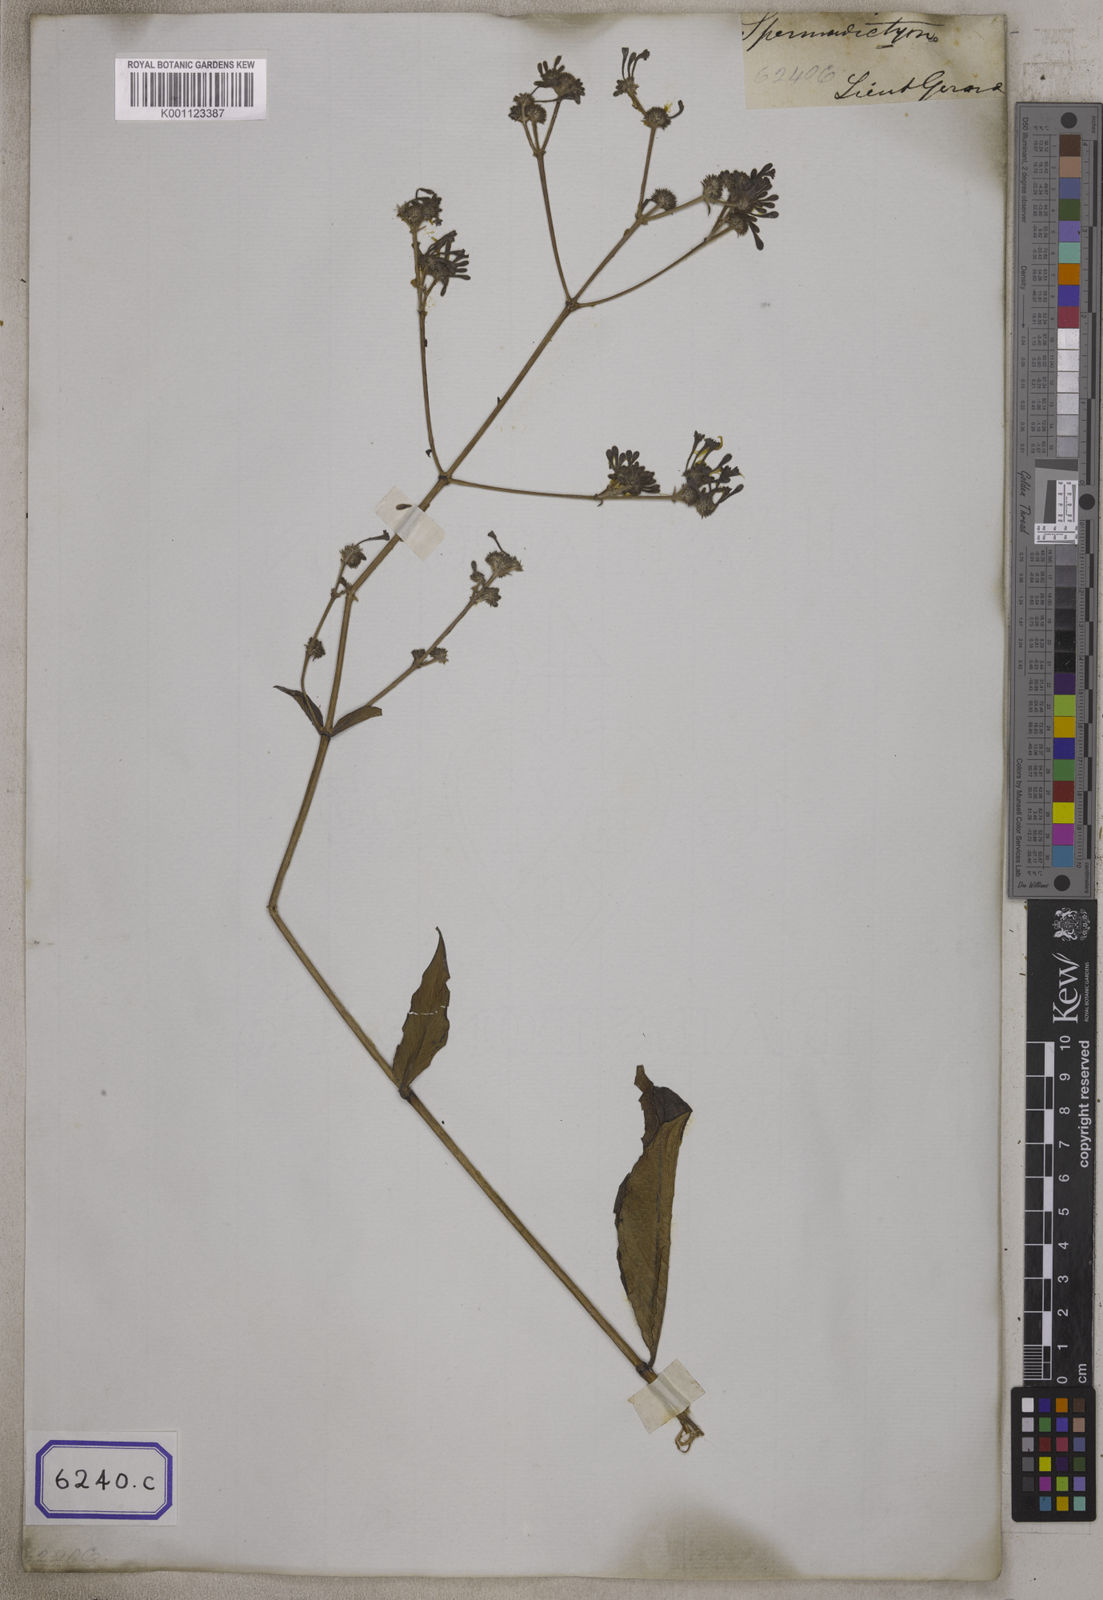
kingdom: Plantae
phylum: Tracheophyta
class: Magnoliopsida
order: Gentianales
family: Rubiaceae
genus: Spermadictyon
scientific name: Spermadictyon suaveolens
